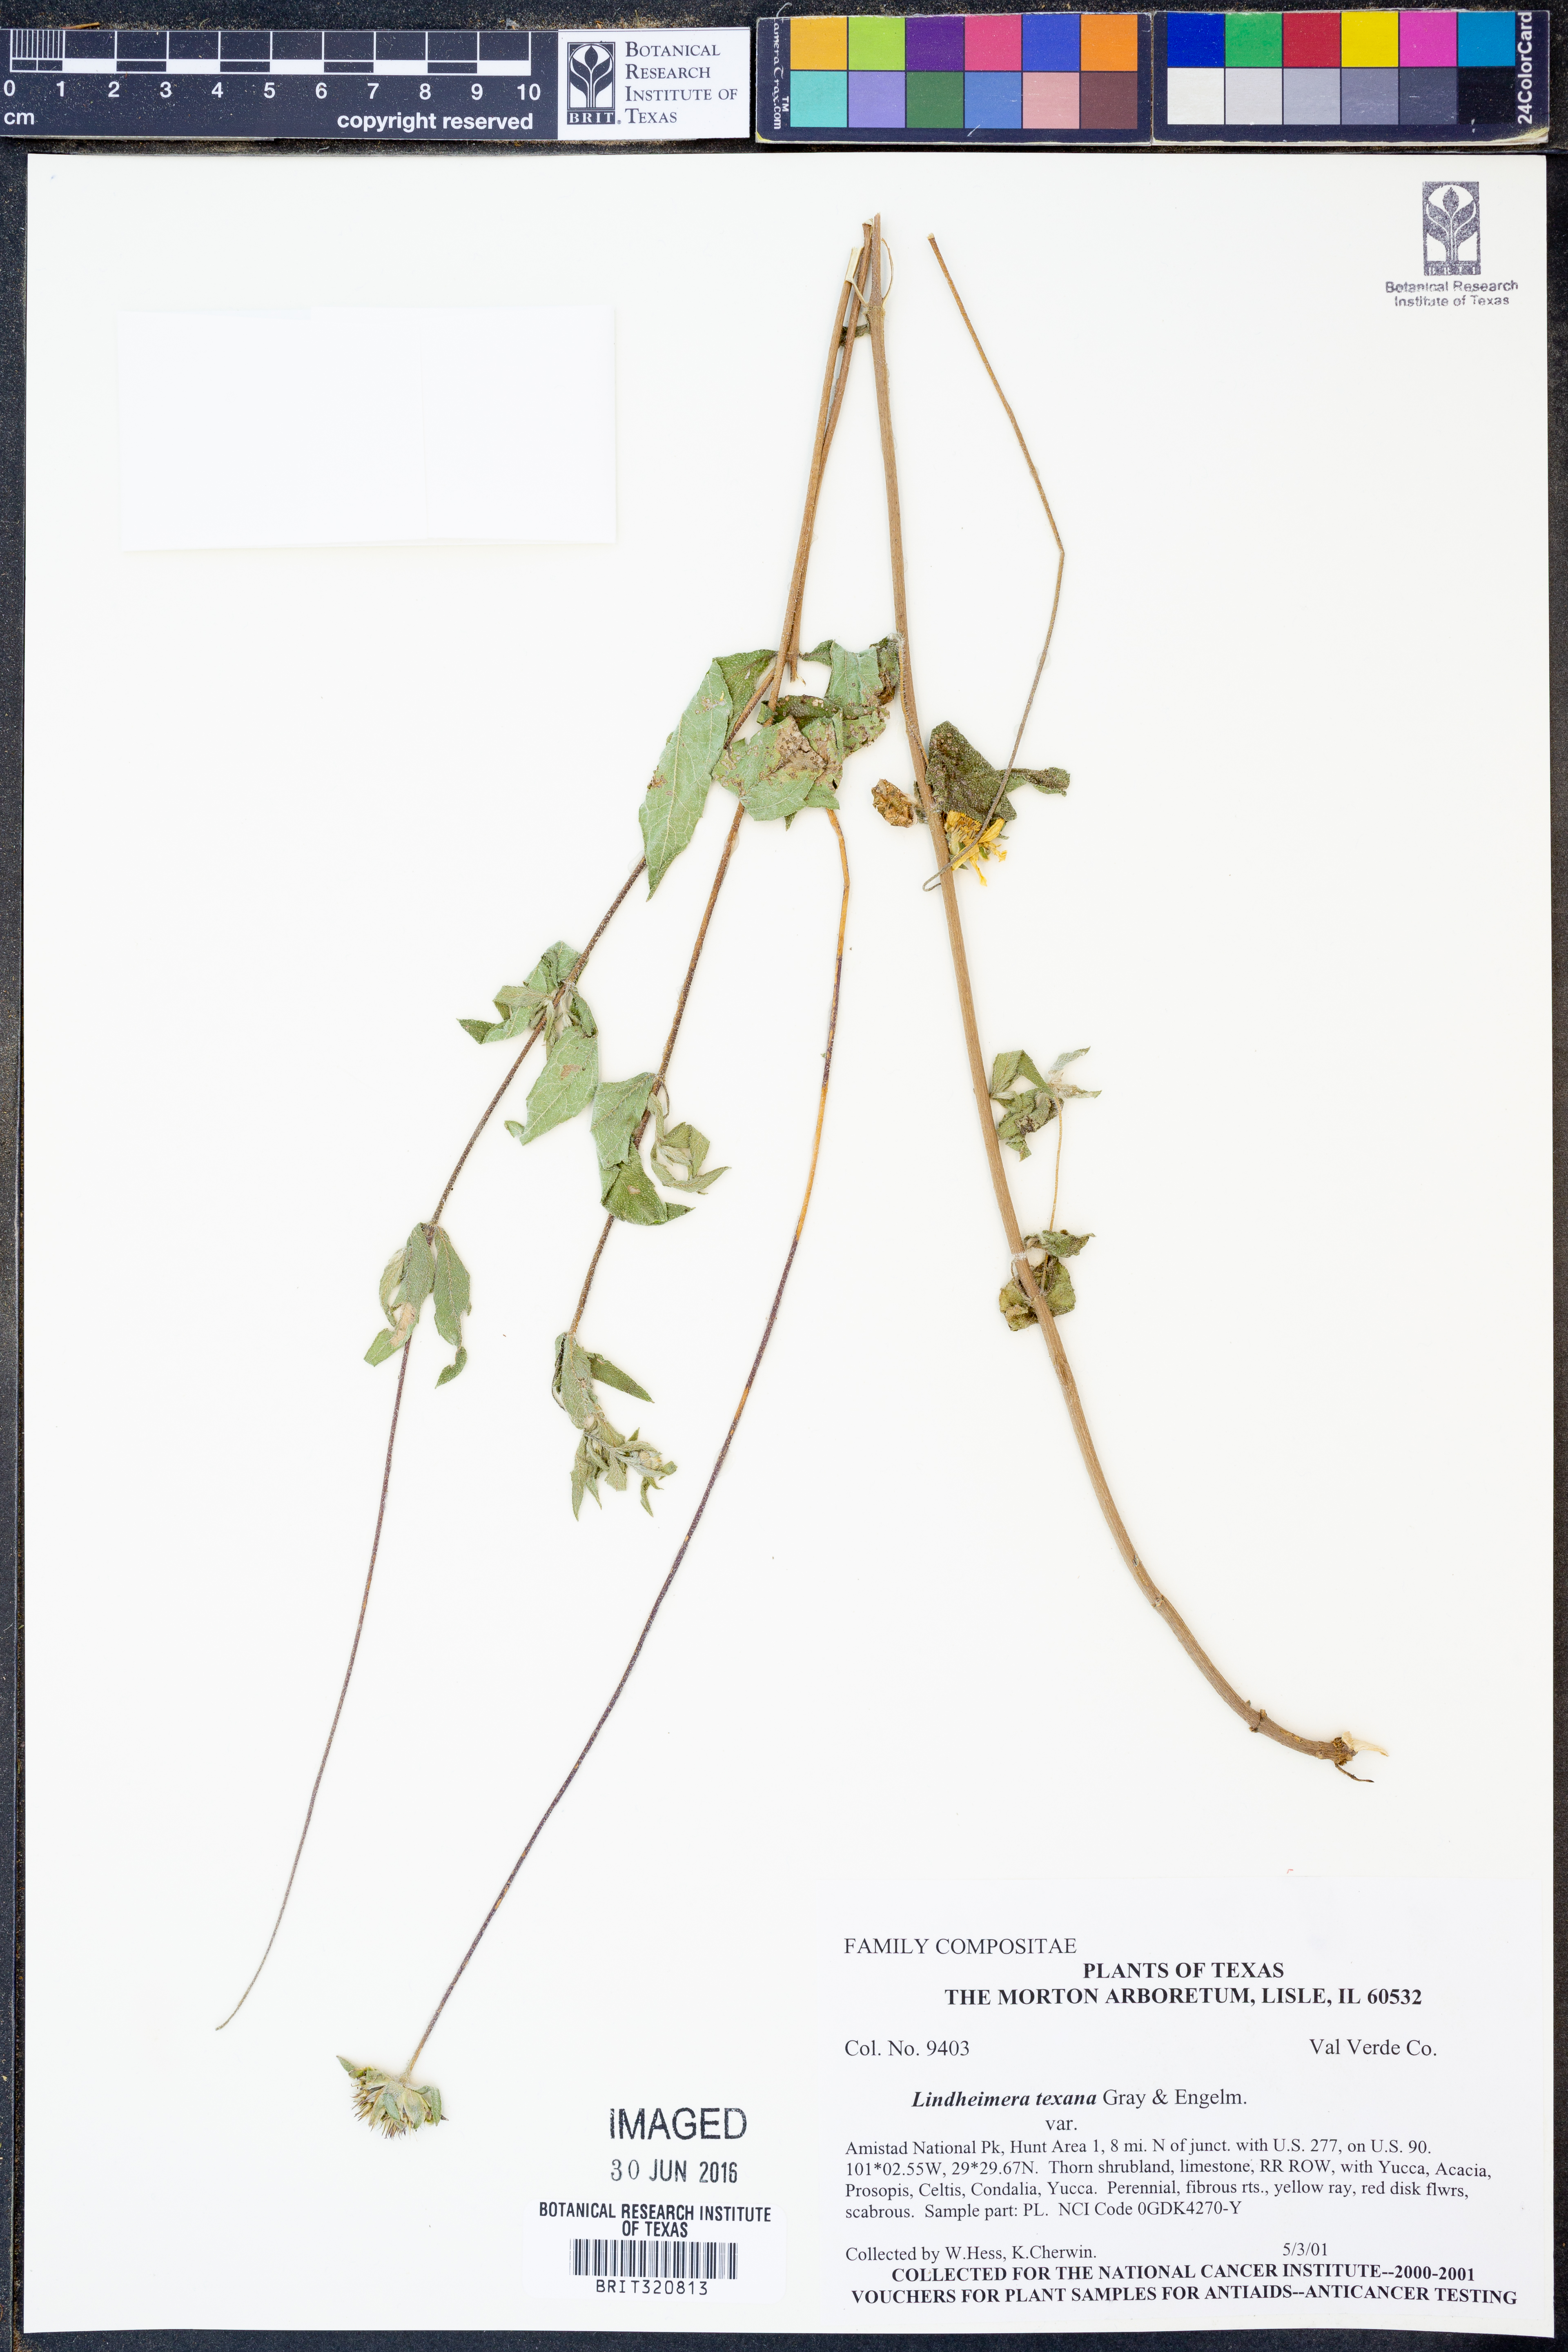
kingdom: Plantae
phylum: Tracheophyta
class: Magnoliopsida
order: Asterales
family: Asteraceae
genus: Lindheimera
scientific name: Lindheimera texana
